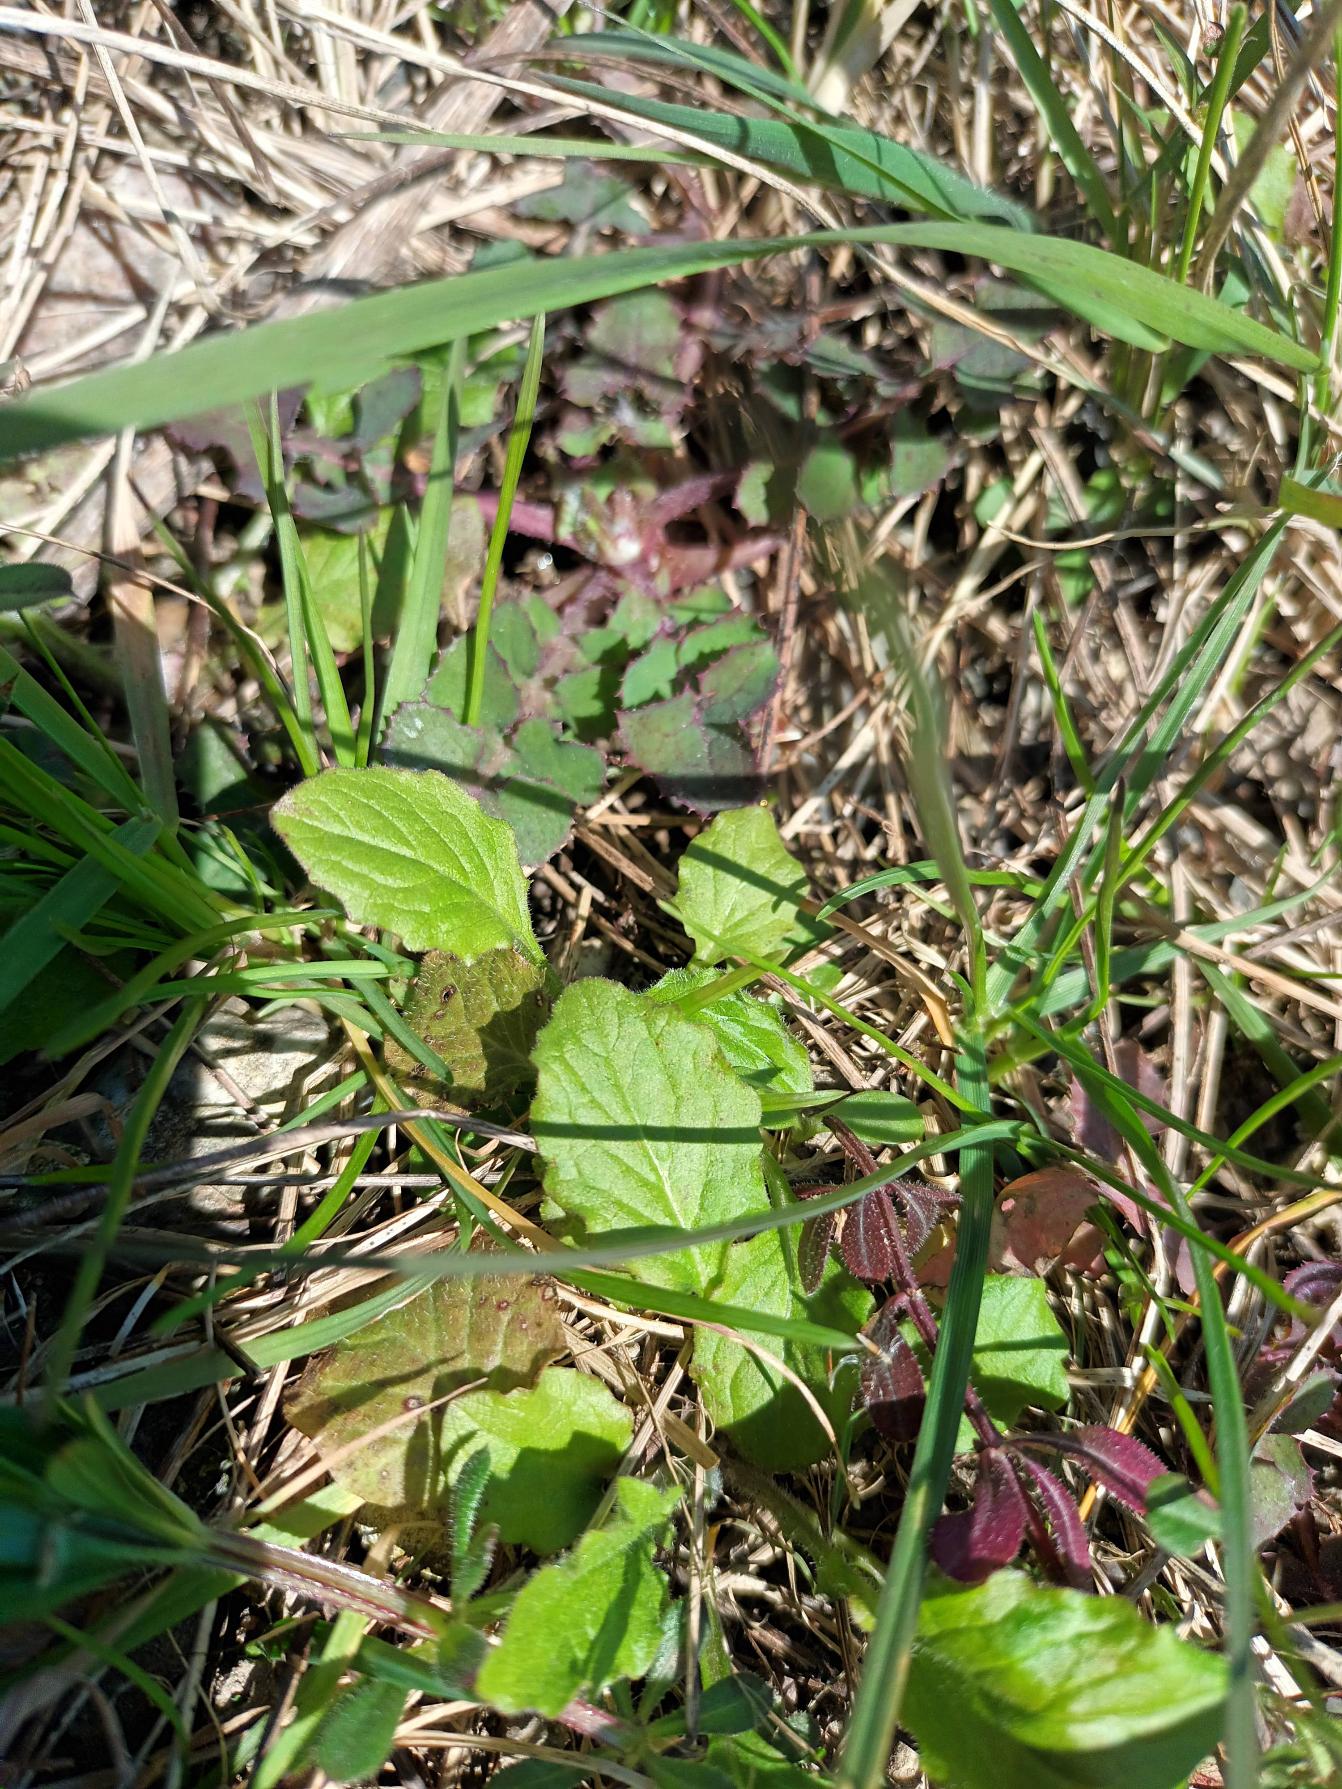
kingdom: Plantae
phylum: Tracheophyta
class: Magnoliopsida
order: Asterales
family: Asteraceae
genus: Lapsana
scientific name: Lapsana communis
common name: Haremad
